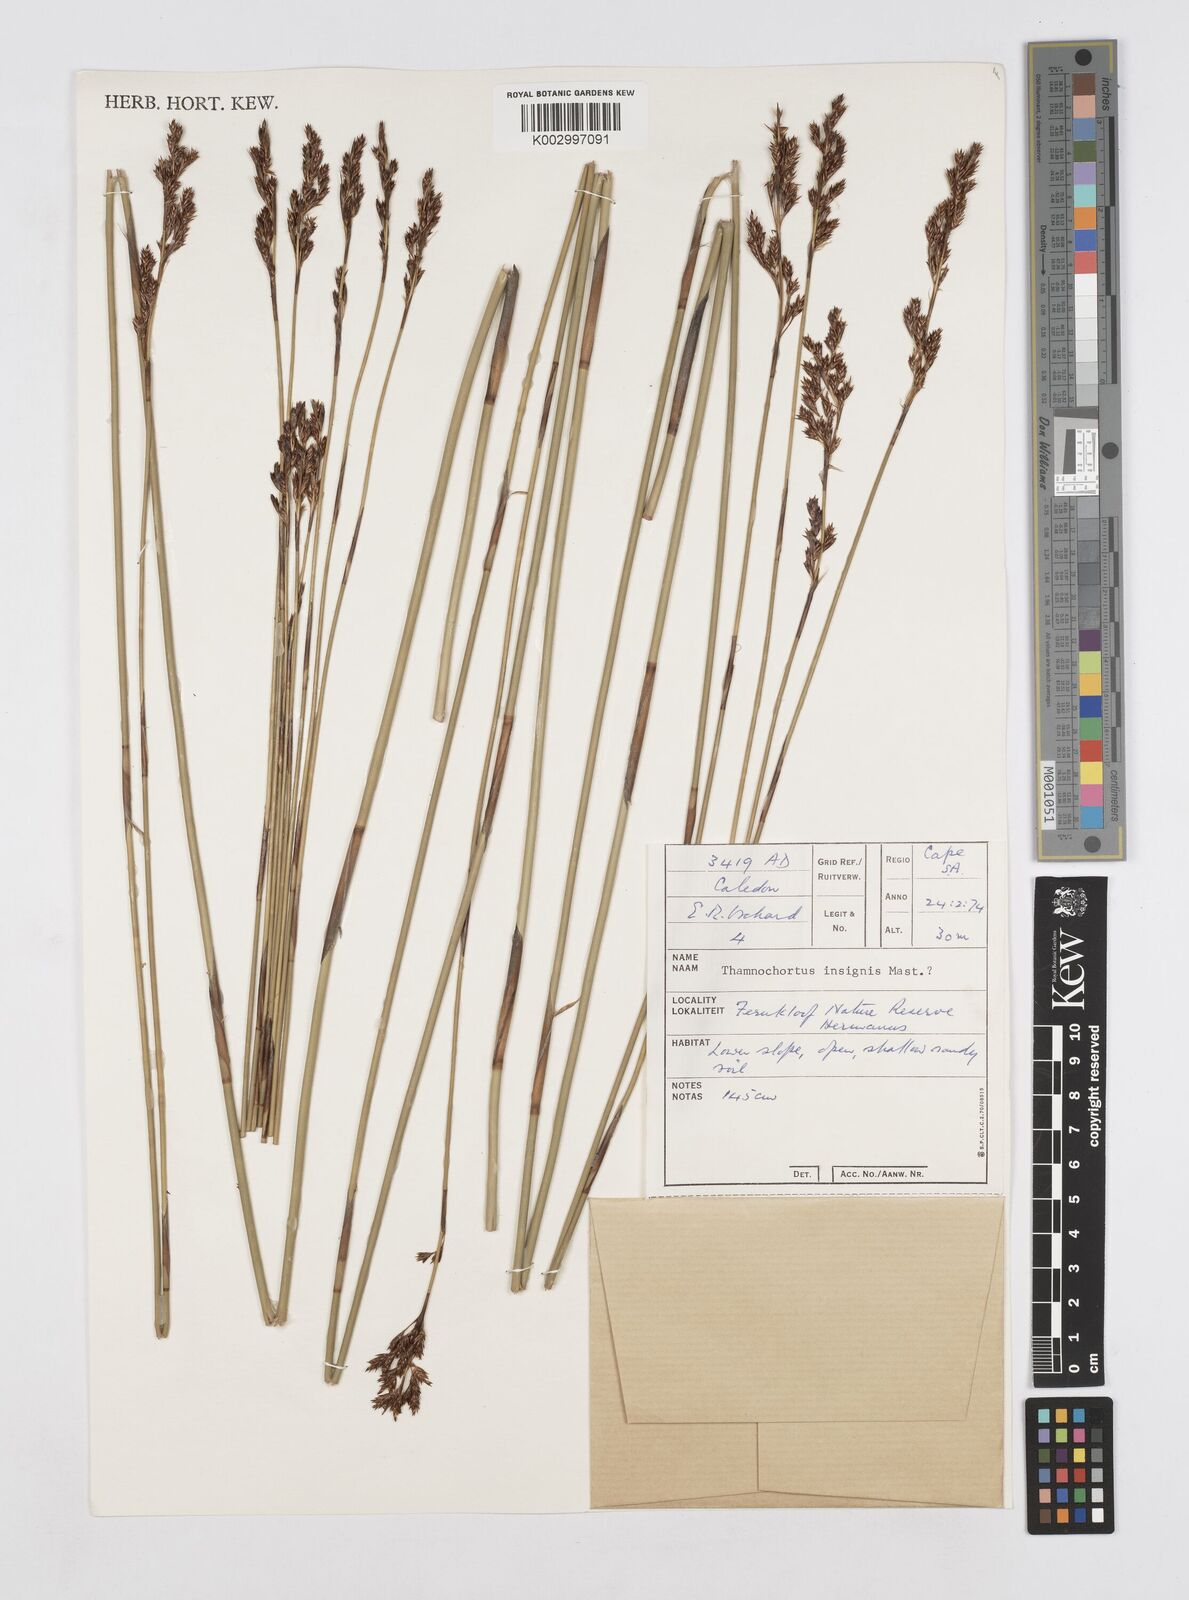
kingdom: Plantae
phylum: Tracheophyta
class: Liliopsida
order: Poales
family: Restionaceae
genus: Thamnochortus
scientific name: Thamnochortus insignis
